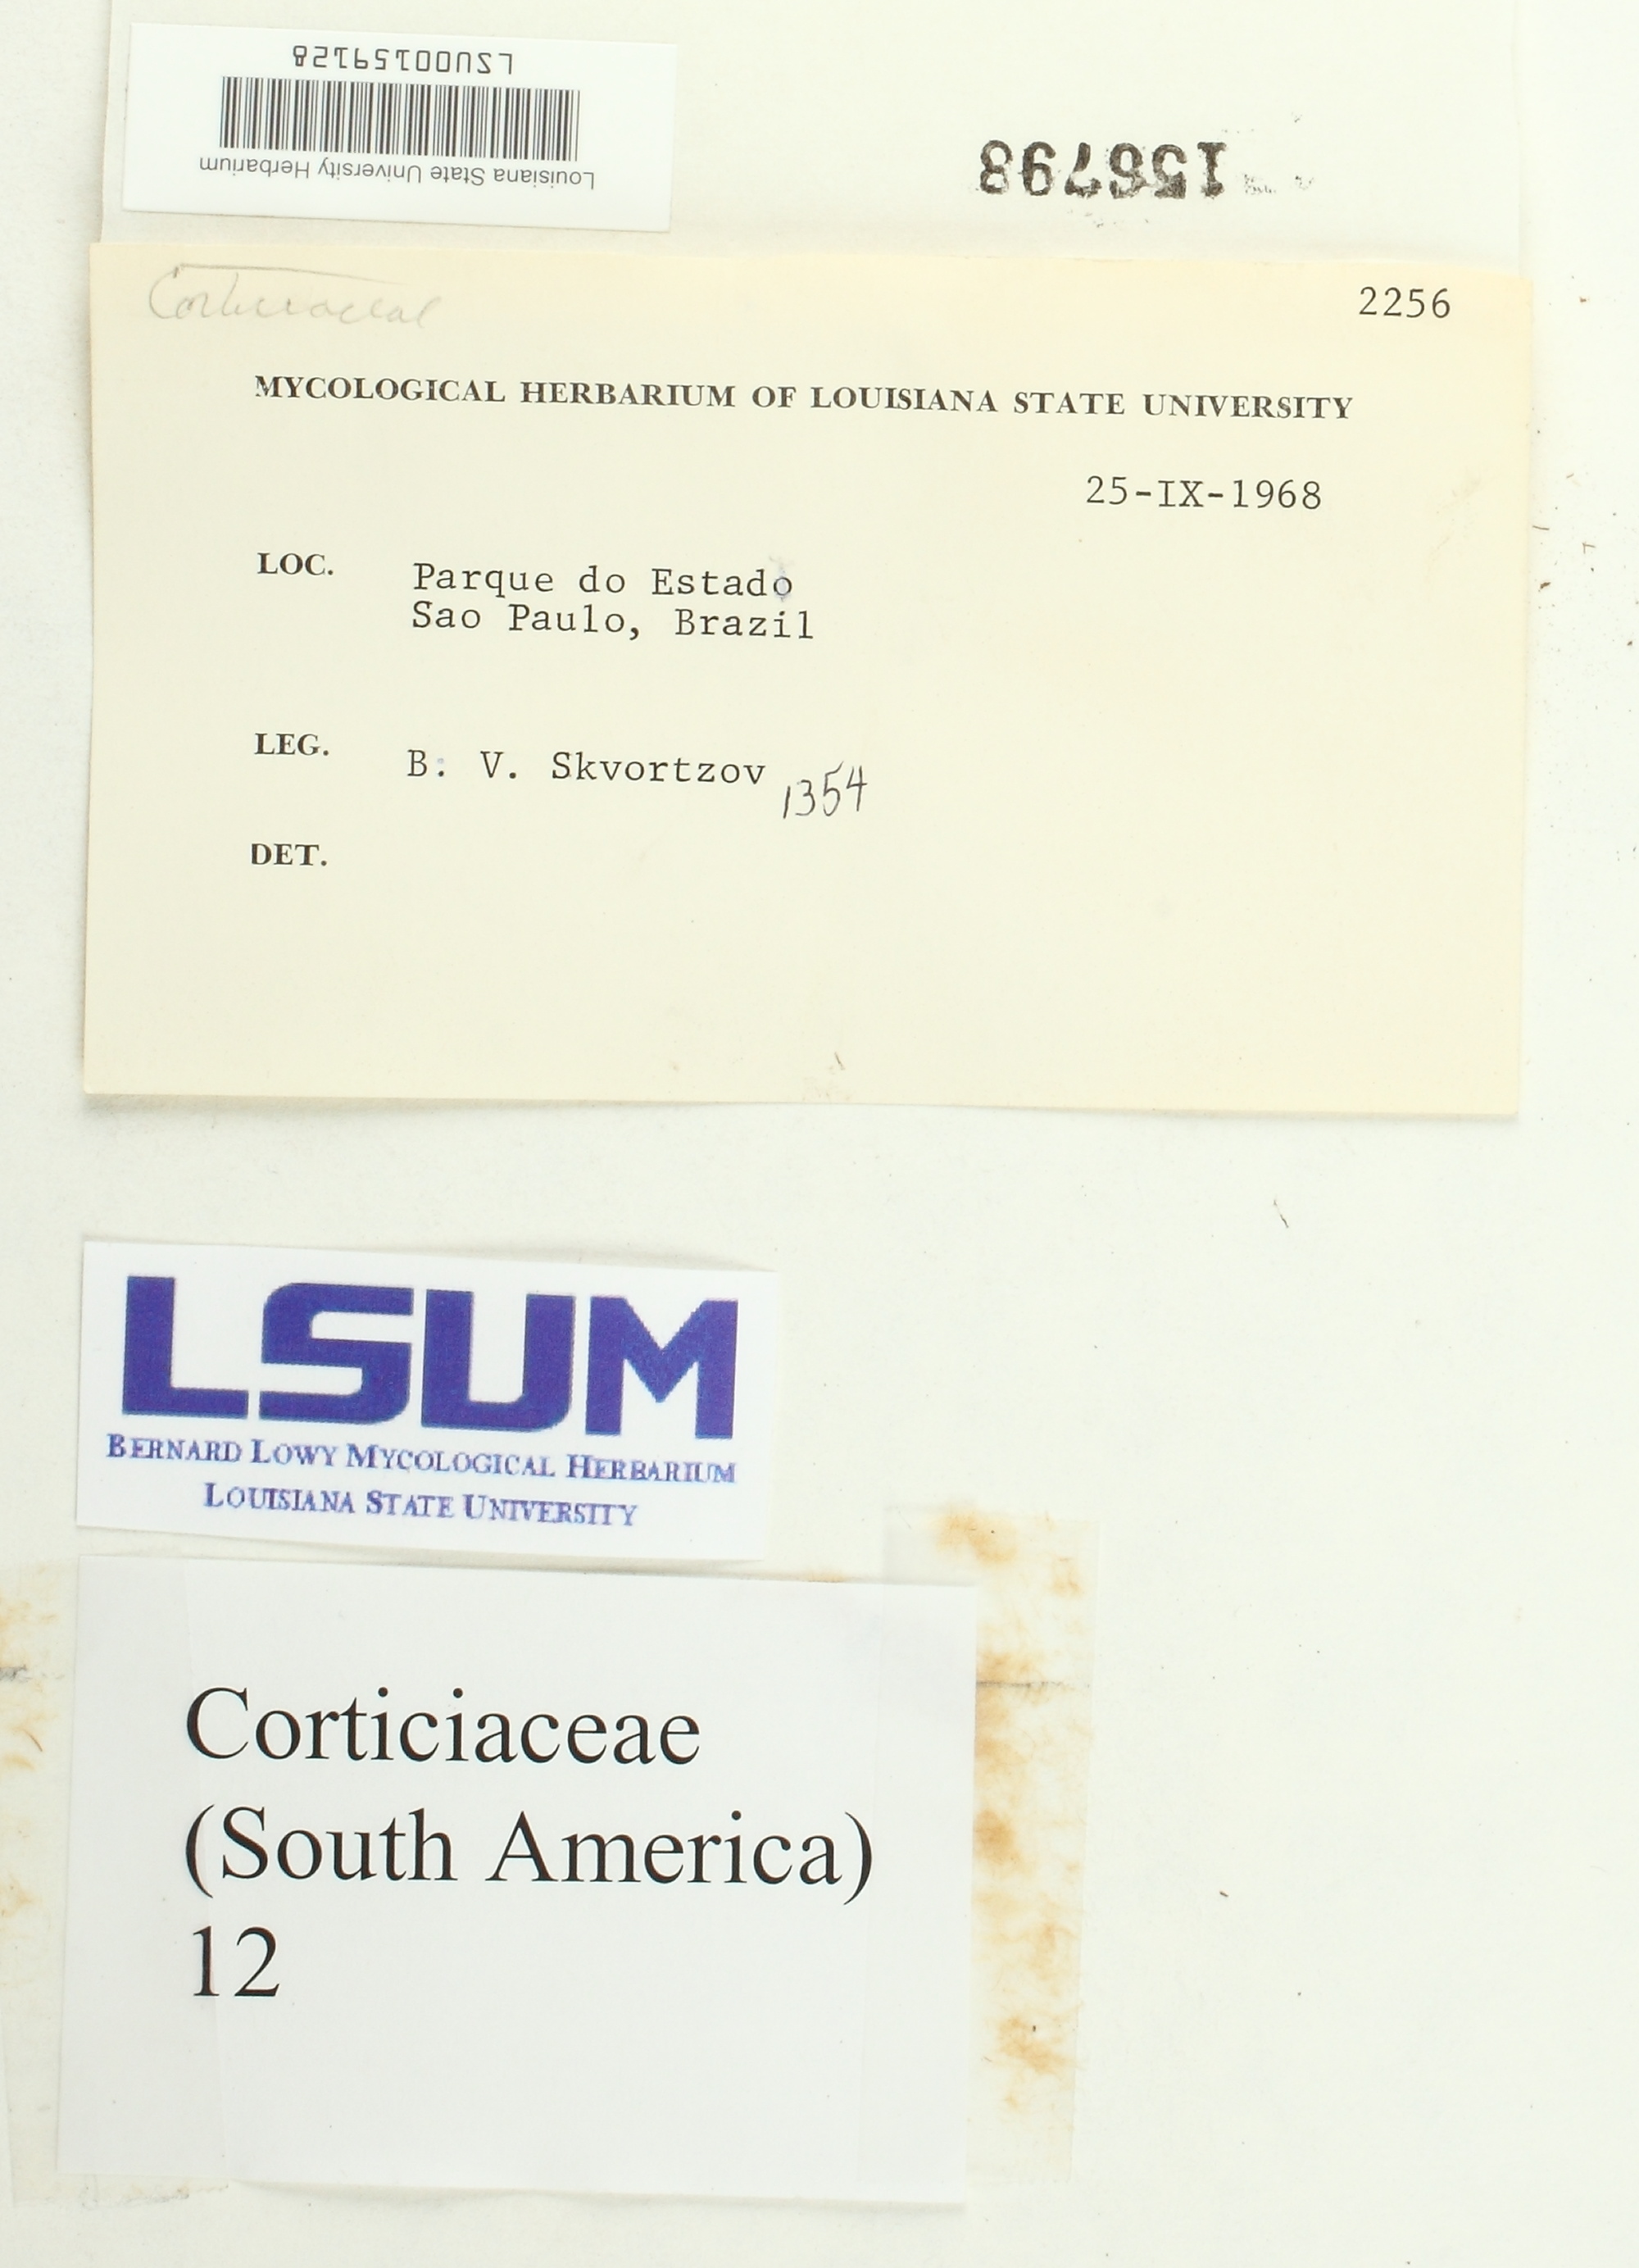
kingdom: Fungi
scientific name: Fungi
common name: Fungi
